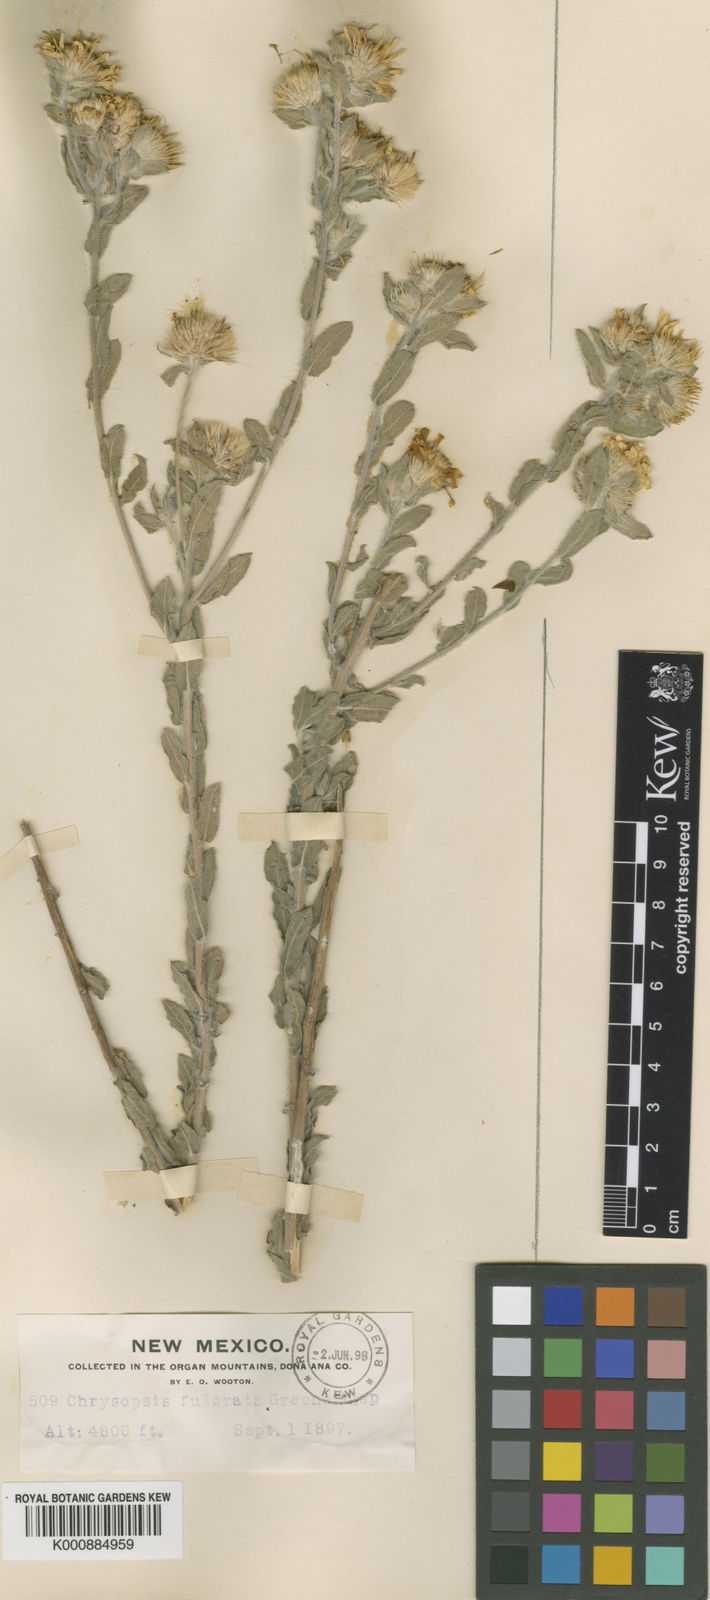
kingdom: Plantae
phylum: Tracheophyta
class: Magnoliopsida
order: Asterales
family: Asteraceae
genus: Heterotheca
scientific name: Heterotheca fulcrata
